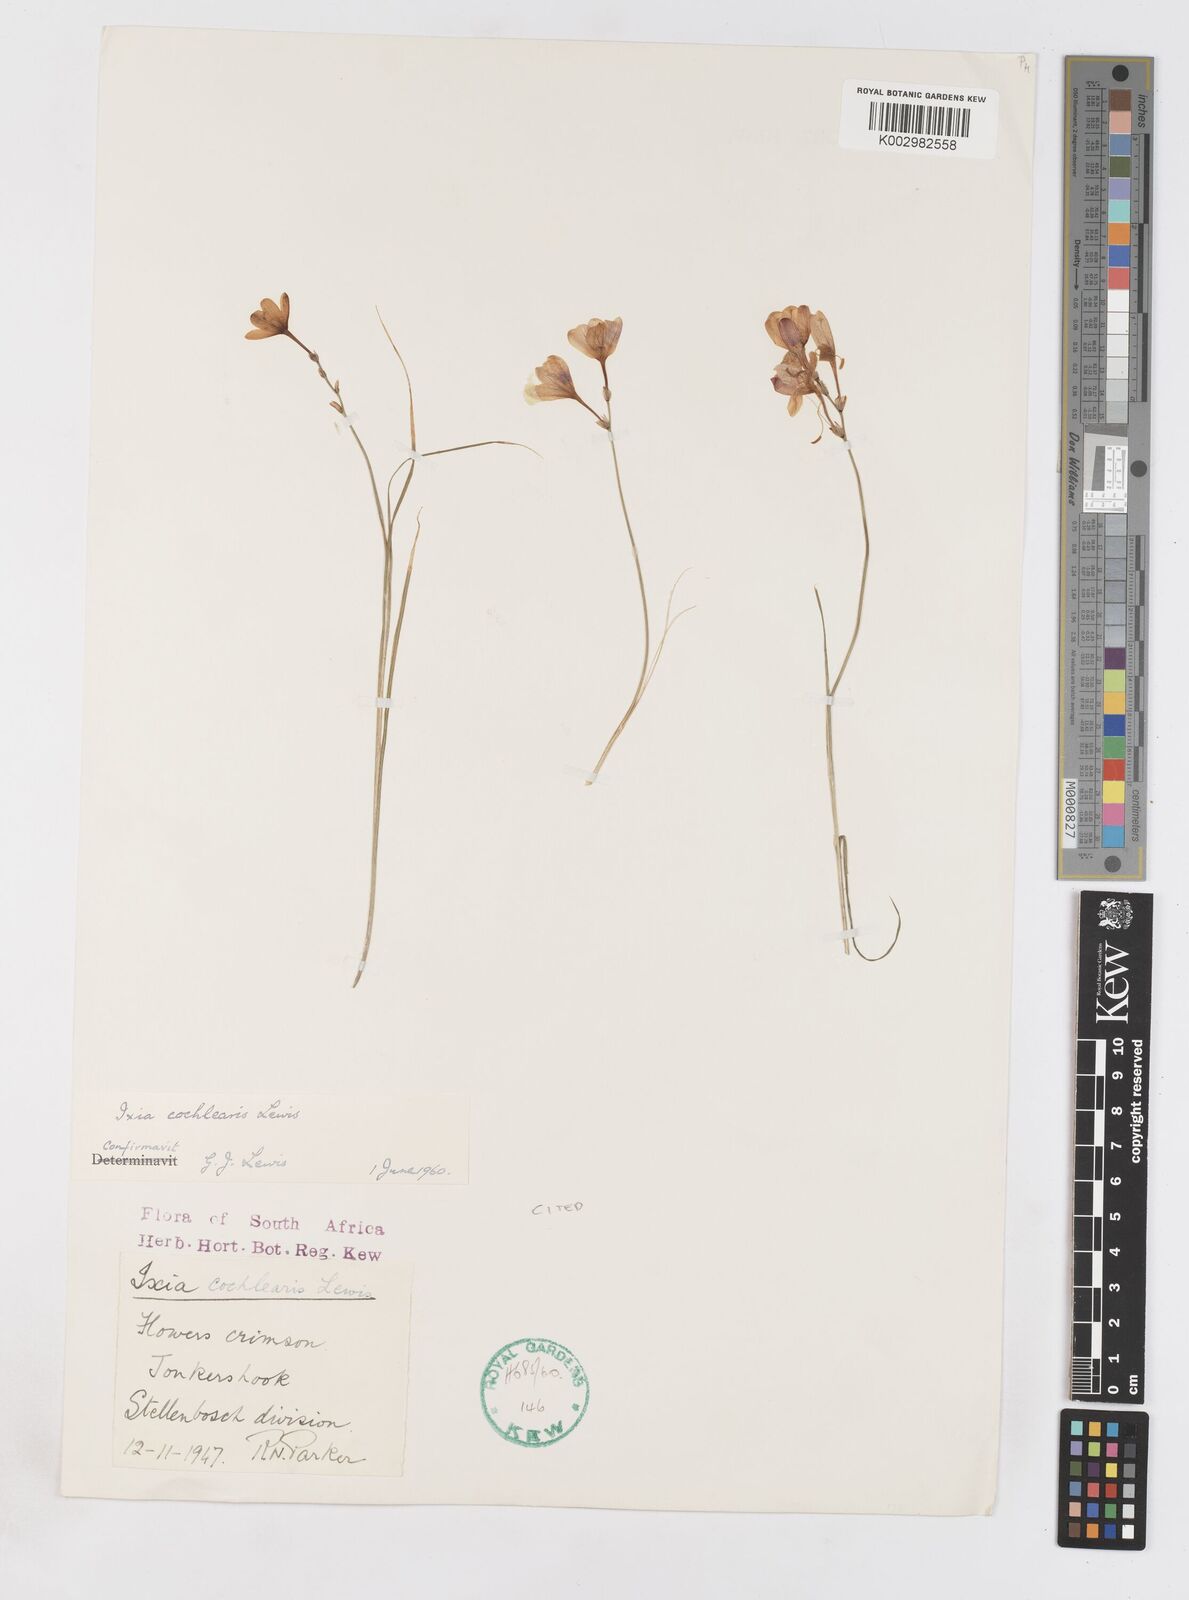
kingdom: Plantae
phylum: Tracheophyta
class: Liliopsida
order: Asparagales
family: Iridaceae
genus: Ixia
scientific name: Ixia cochlearis
